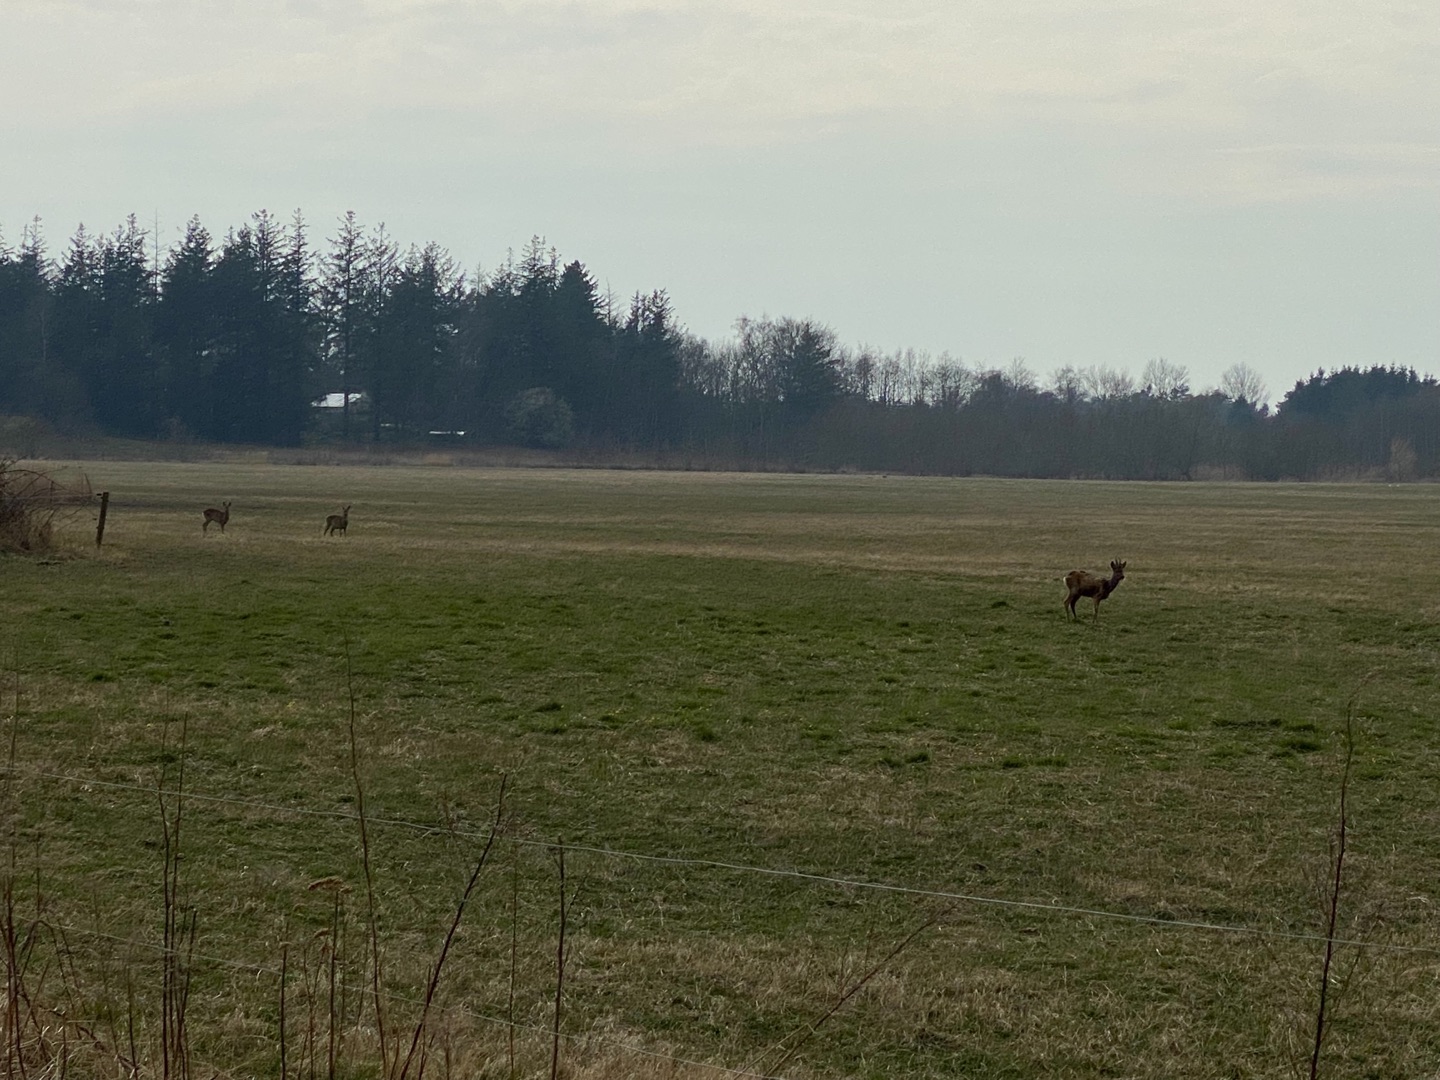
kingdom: Animalia
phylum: Chordata
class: Mammalia
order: Artiodactyla
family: Cervidae
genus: Capreolus
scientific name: Capreolus capreolus
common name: Rådyr
